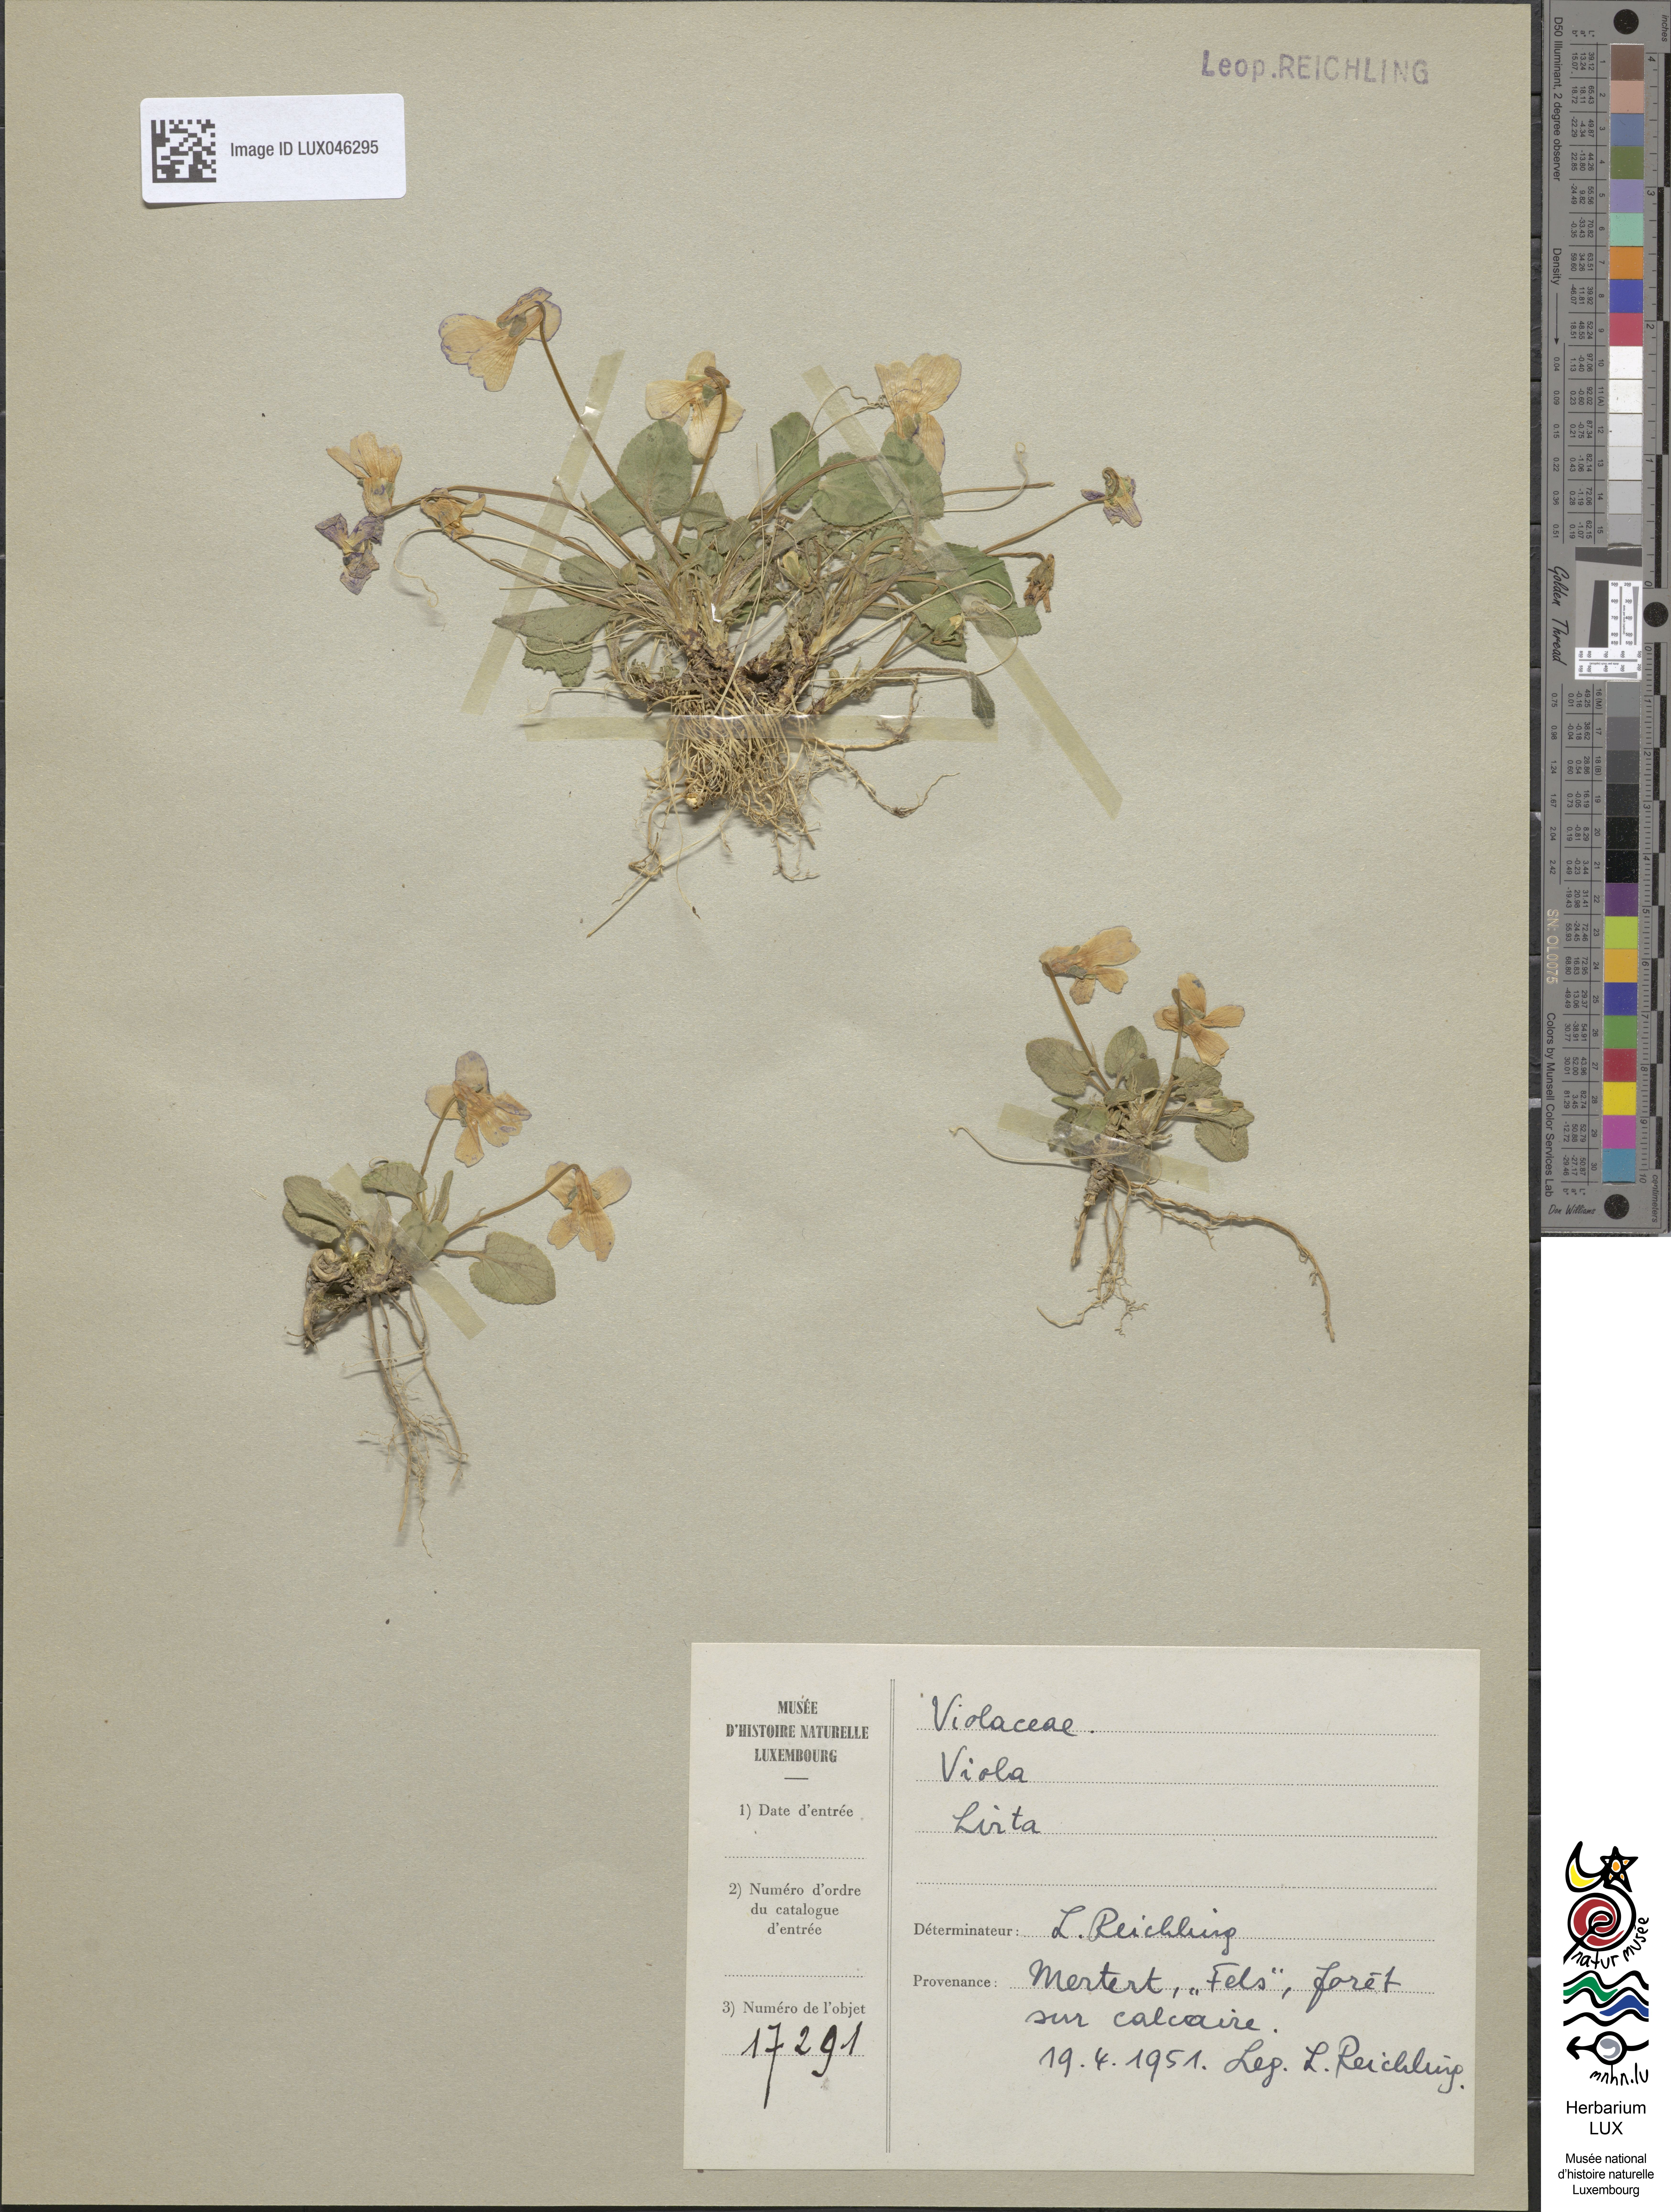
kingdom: Plantae
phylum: Tracheophyta
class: Magnoliopsida
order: Malpighiales
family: Violaceae
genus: Viola
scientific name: Viola hirta
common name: Hairy violet
